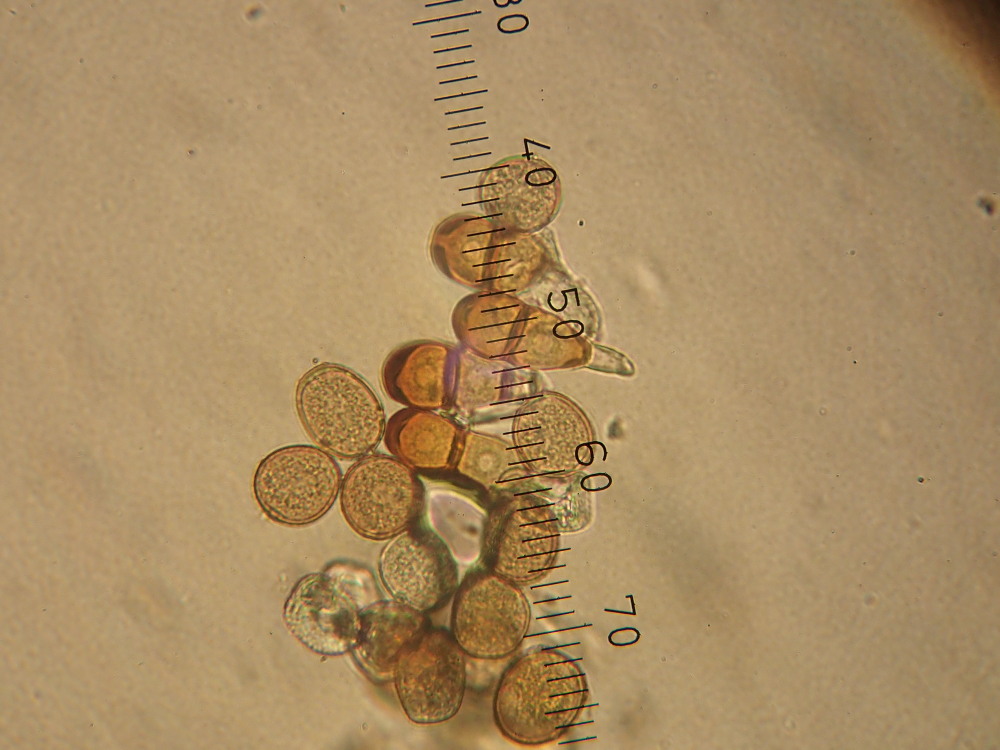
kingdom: Fungi
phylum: Basidiomycota
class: Pucciniomycetes
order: Pucciniales
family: Pucciniaceae
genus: Puccinia
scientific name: Puccinia polygoni-amphibii
